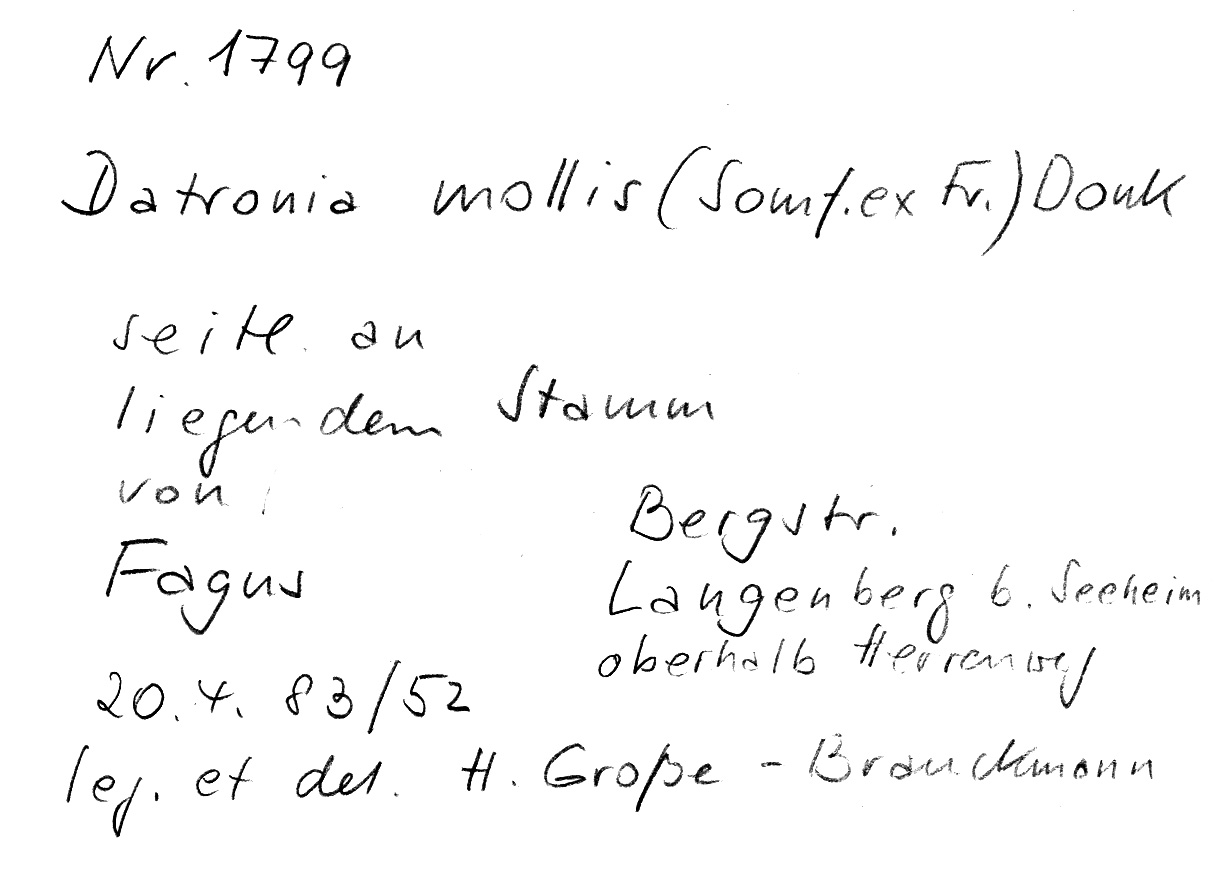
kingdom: Fungi
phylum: Basidiomycota
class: Agaricomycetes
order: Polyporales
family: Polyporaceae
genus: Podofomes
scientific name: Podofomes mollis
